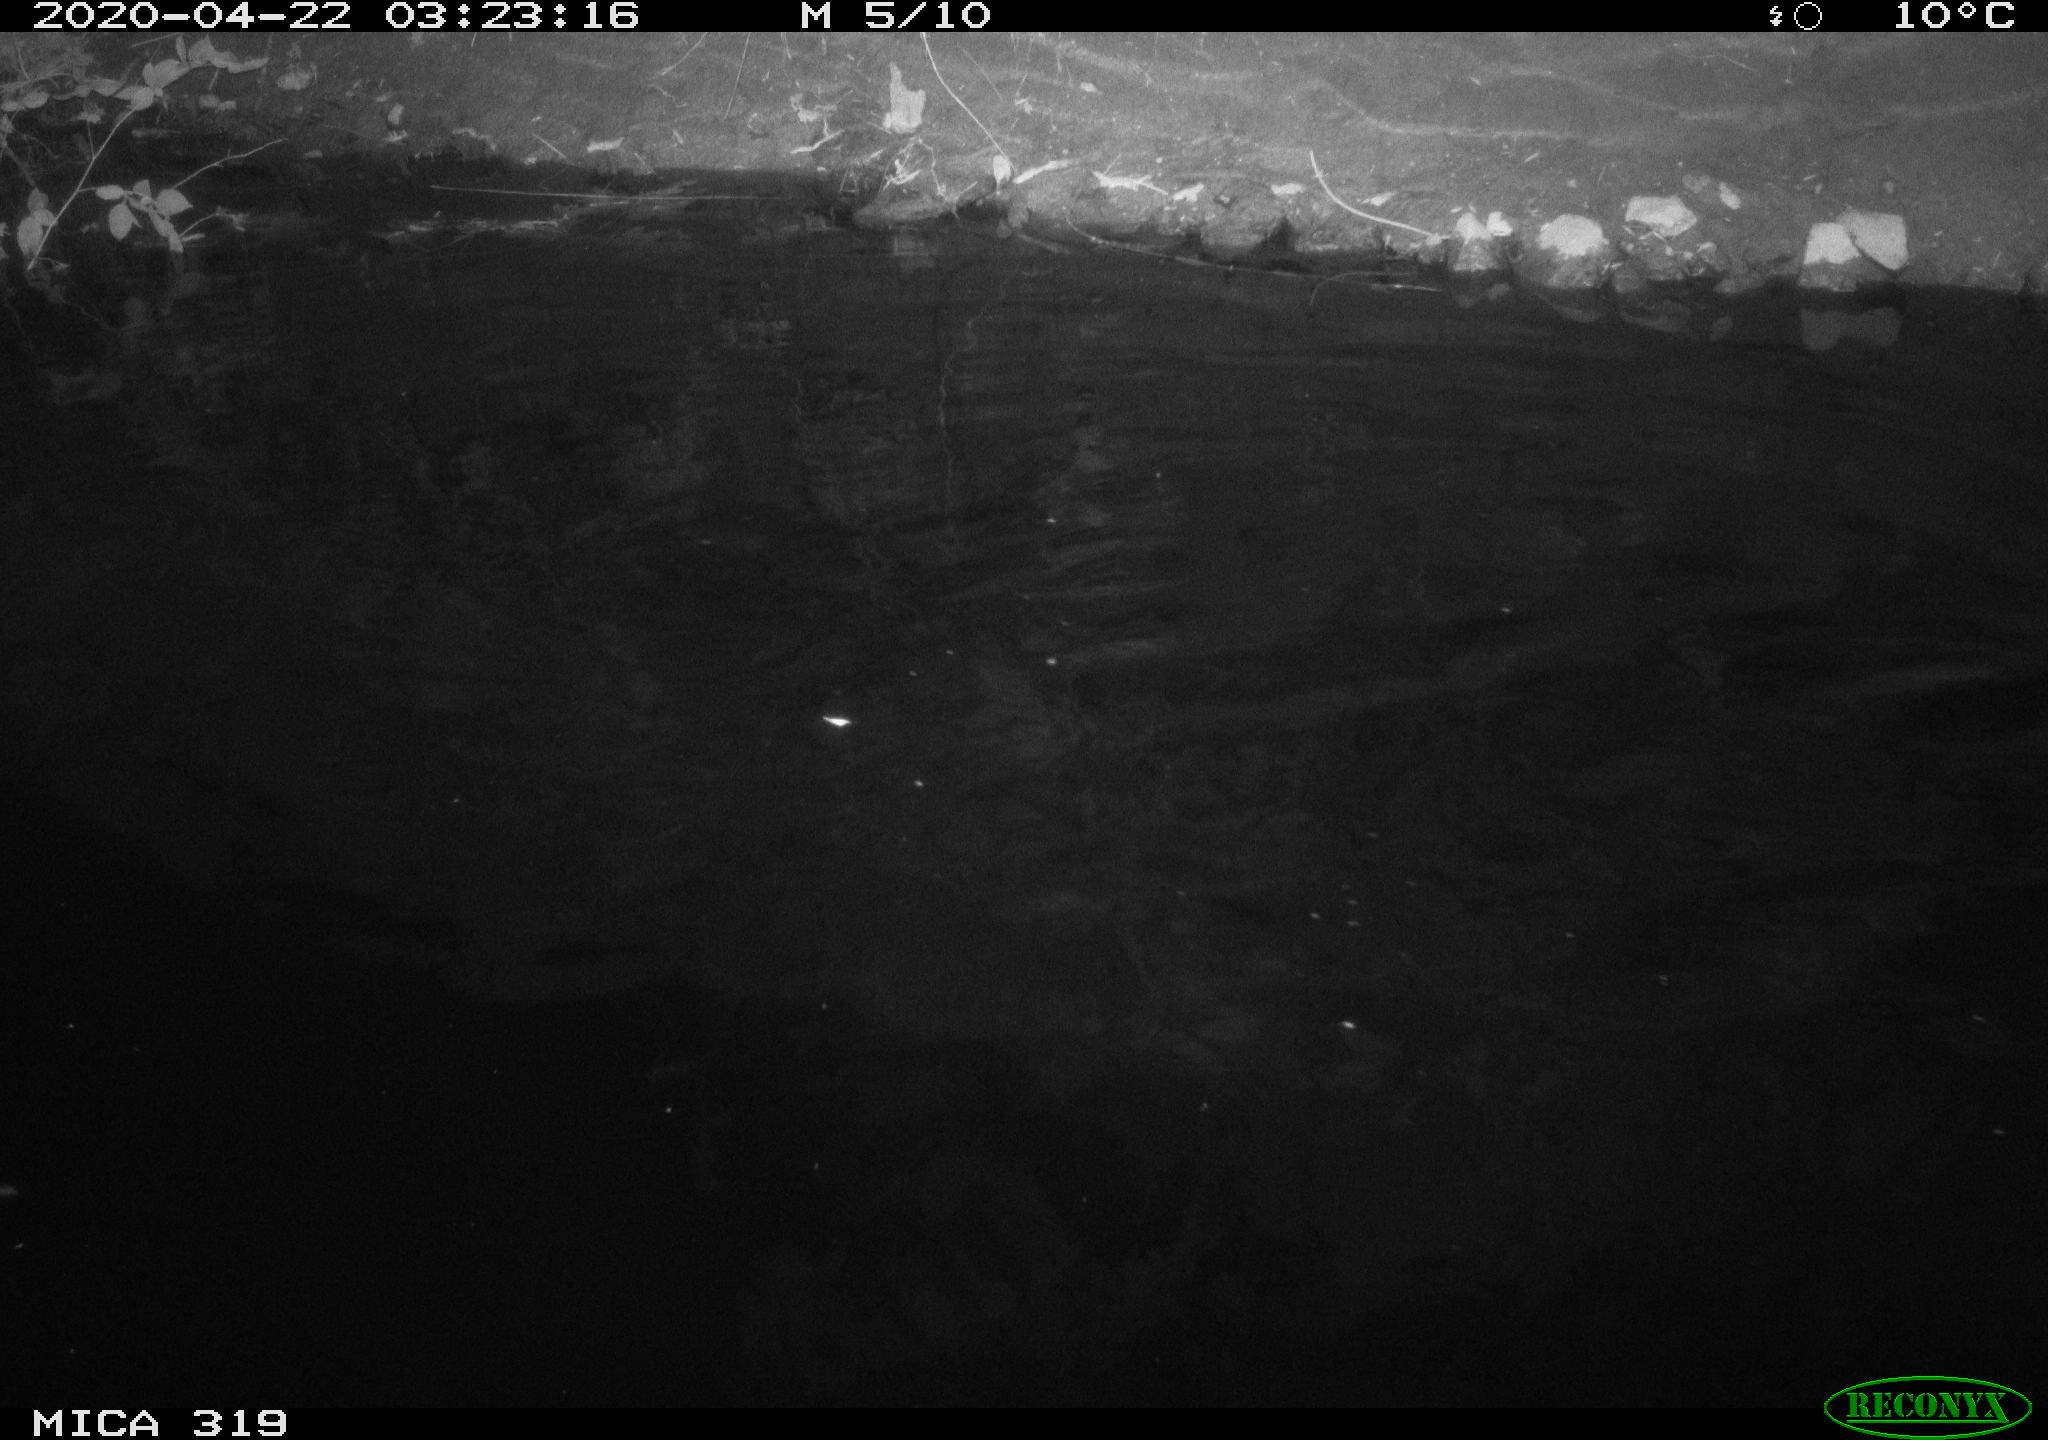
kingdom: Animalia
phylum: Chordata
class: Aves
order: Anseriformes
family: Anatidae
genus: Anas
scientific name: Anas platyrhynchos
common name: Mallard
